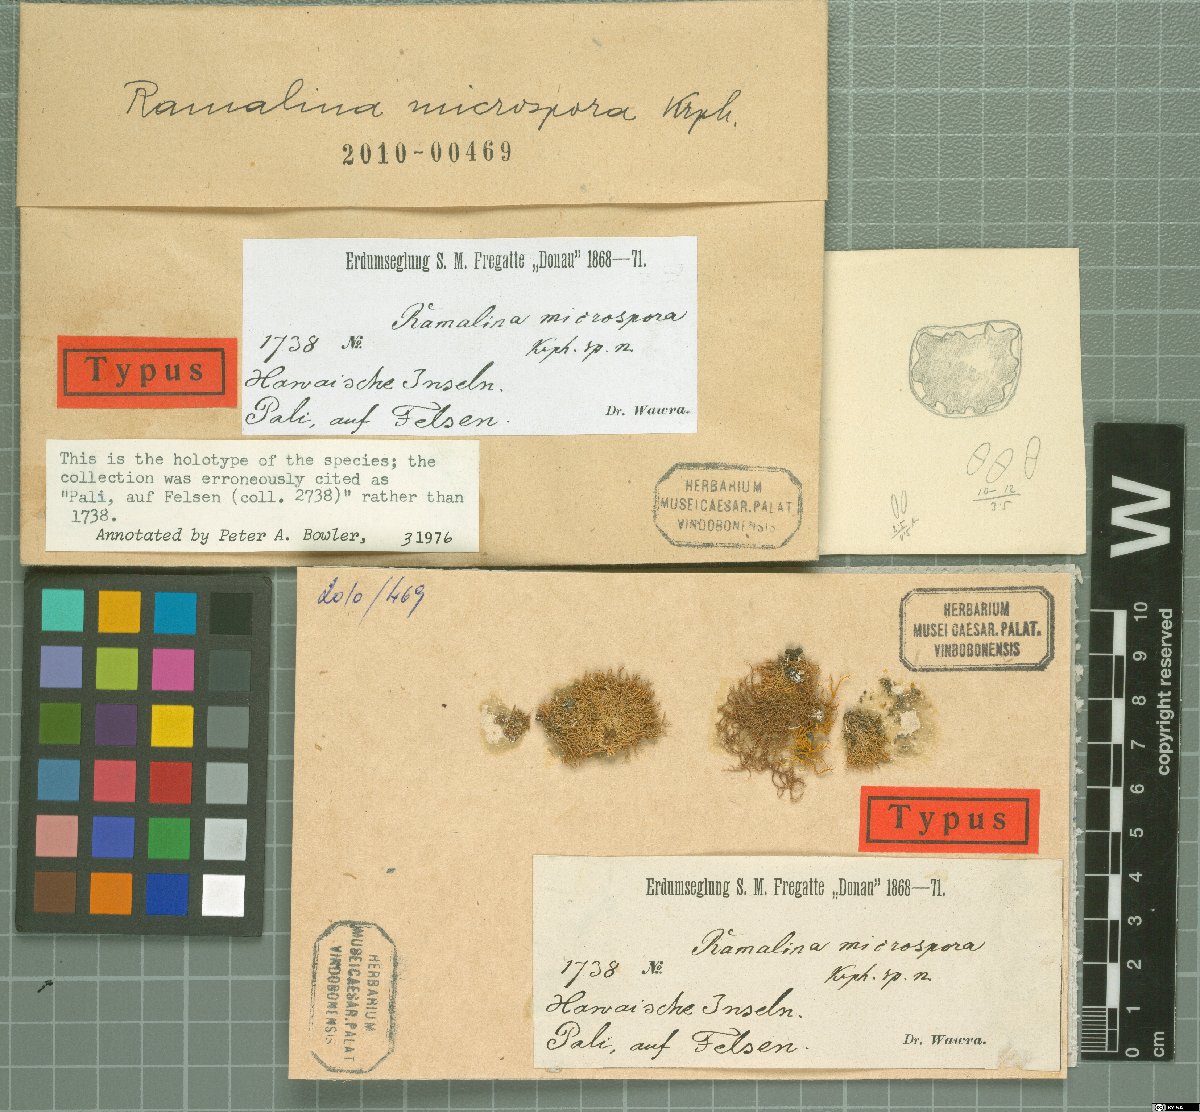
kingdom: Fungi
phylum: Ascomycota
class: Lecanoromycetes
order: Lecanorales
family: Ramalinaceae
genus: Ramalina
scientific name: Ramalina microspora
